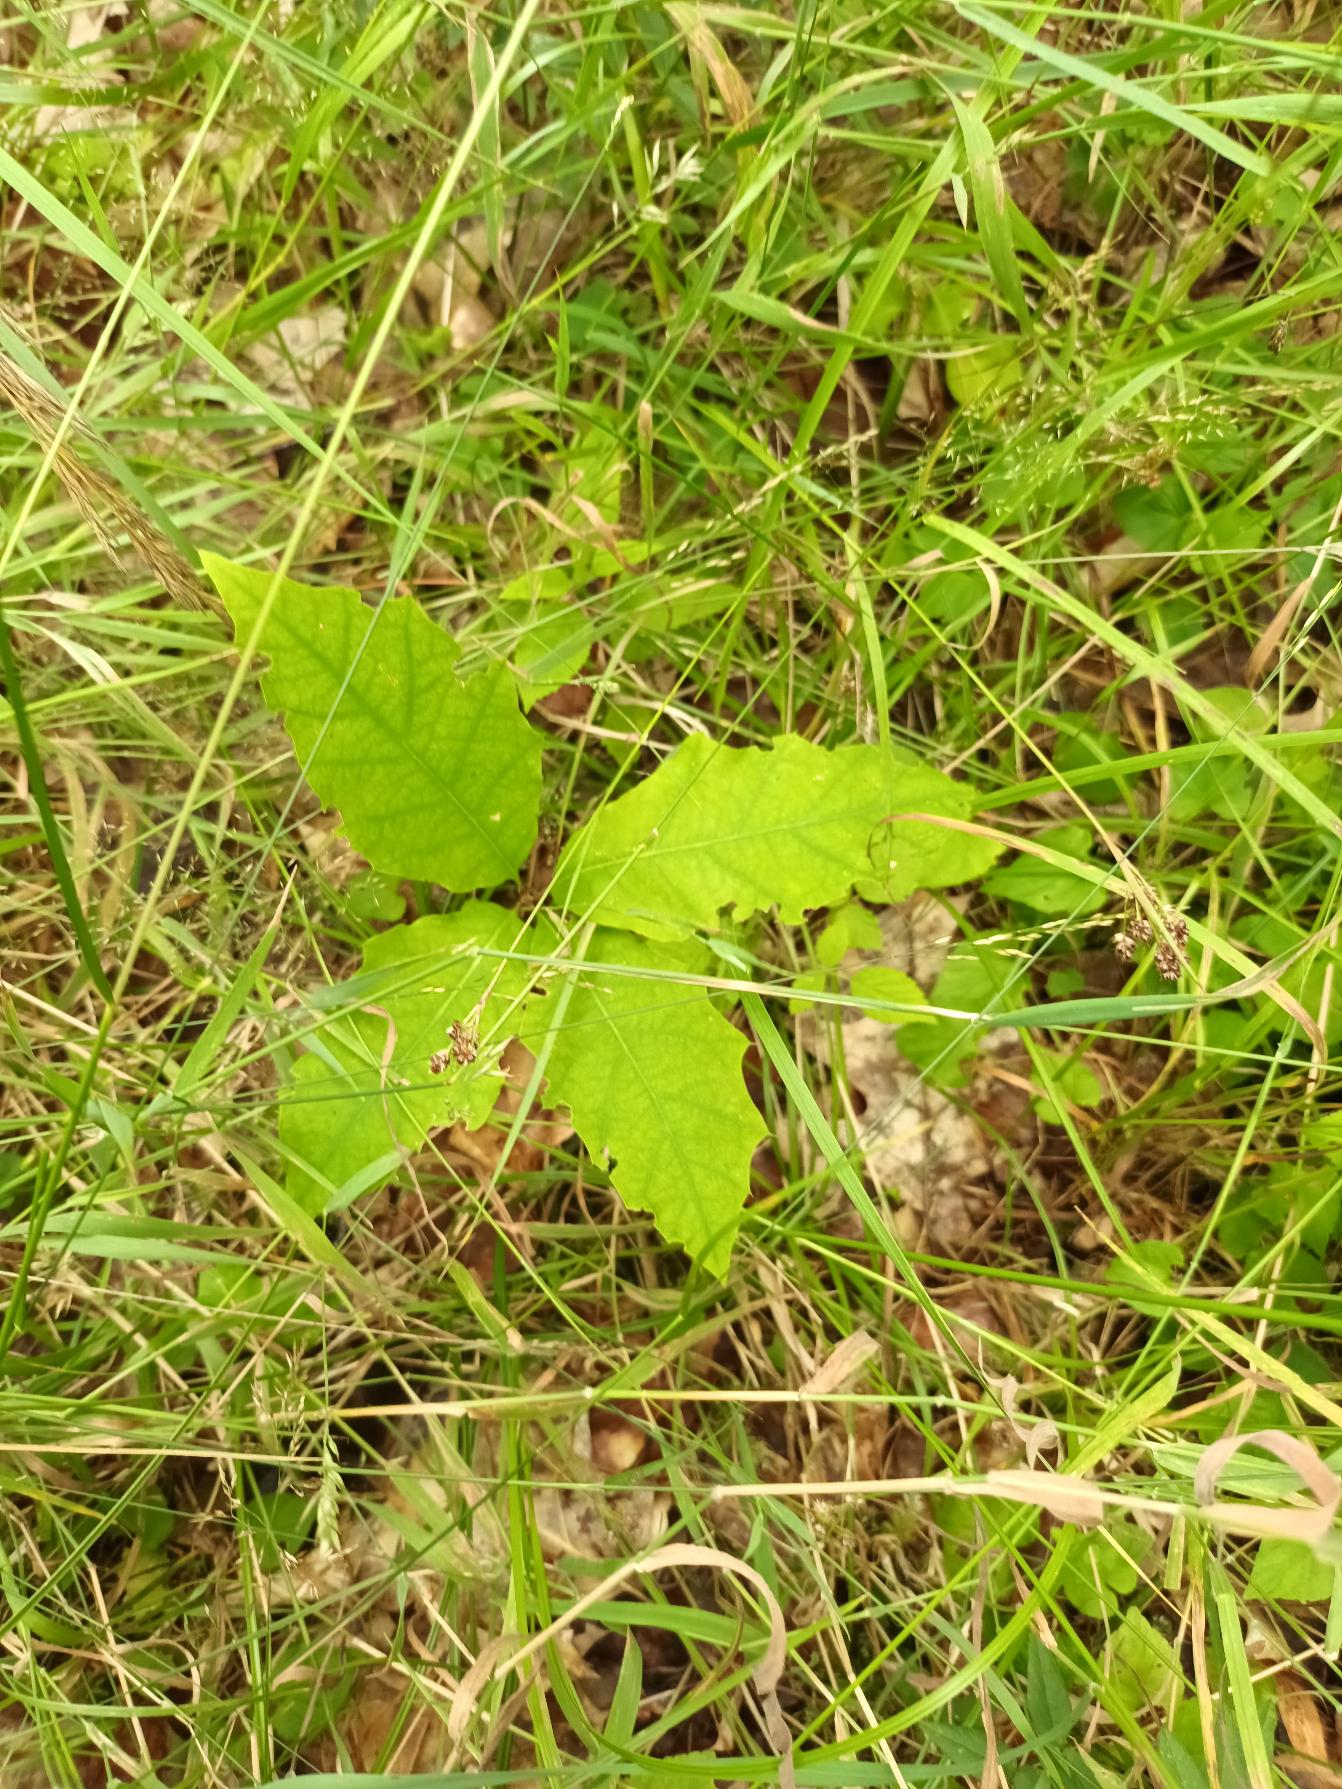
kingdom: Plantae
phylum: Tracheophyta
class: Magnoliopsida
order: Fagales
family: Fagaceae
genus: Quercus
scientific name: Quercus rubra
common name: Rød-eg
